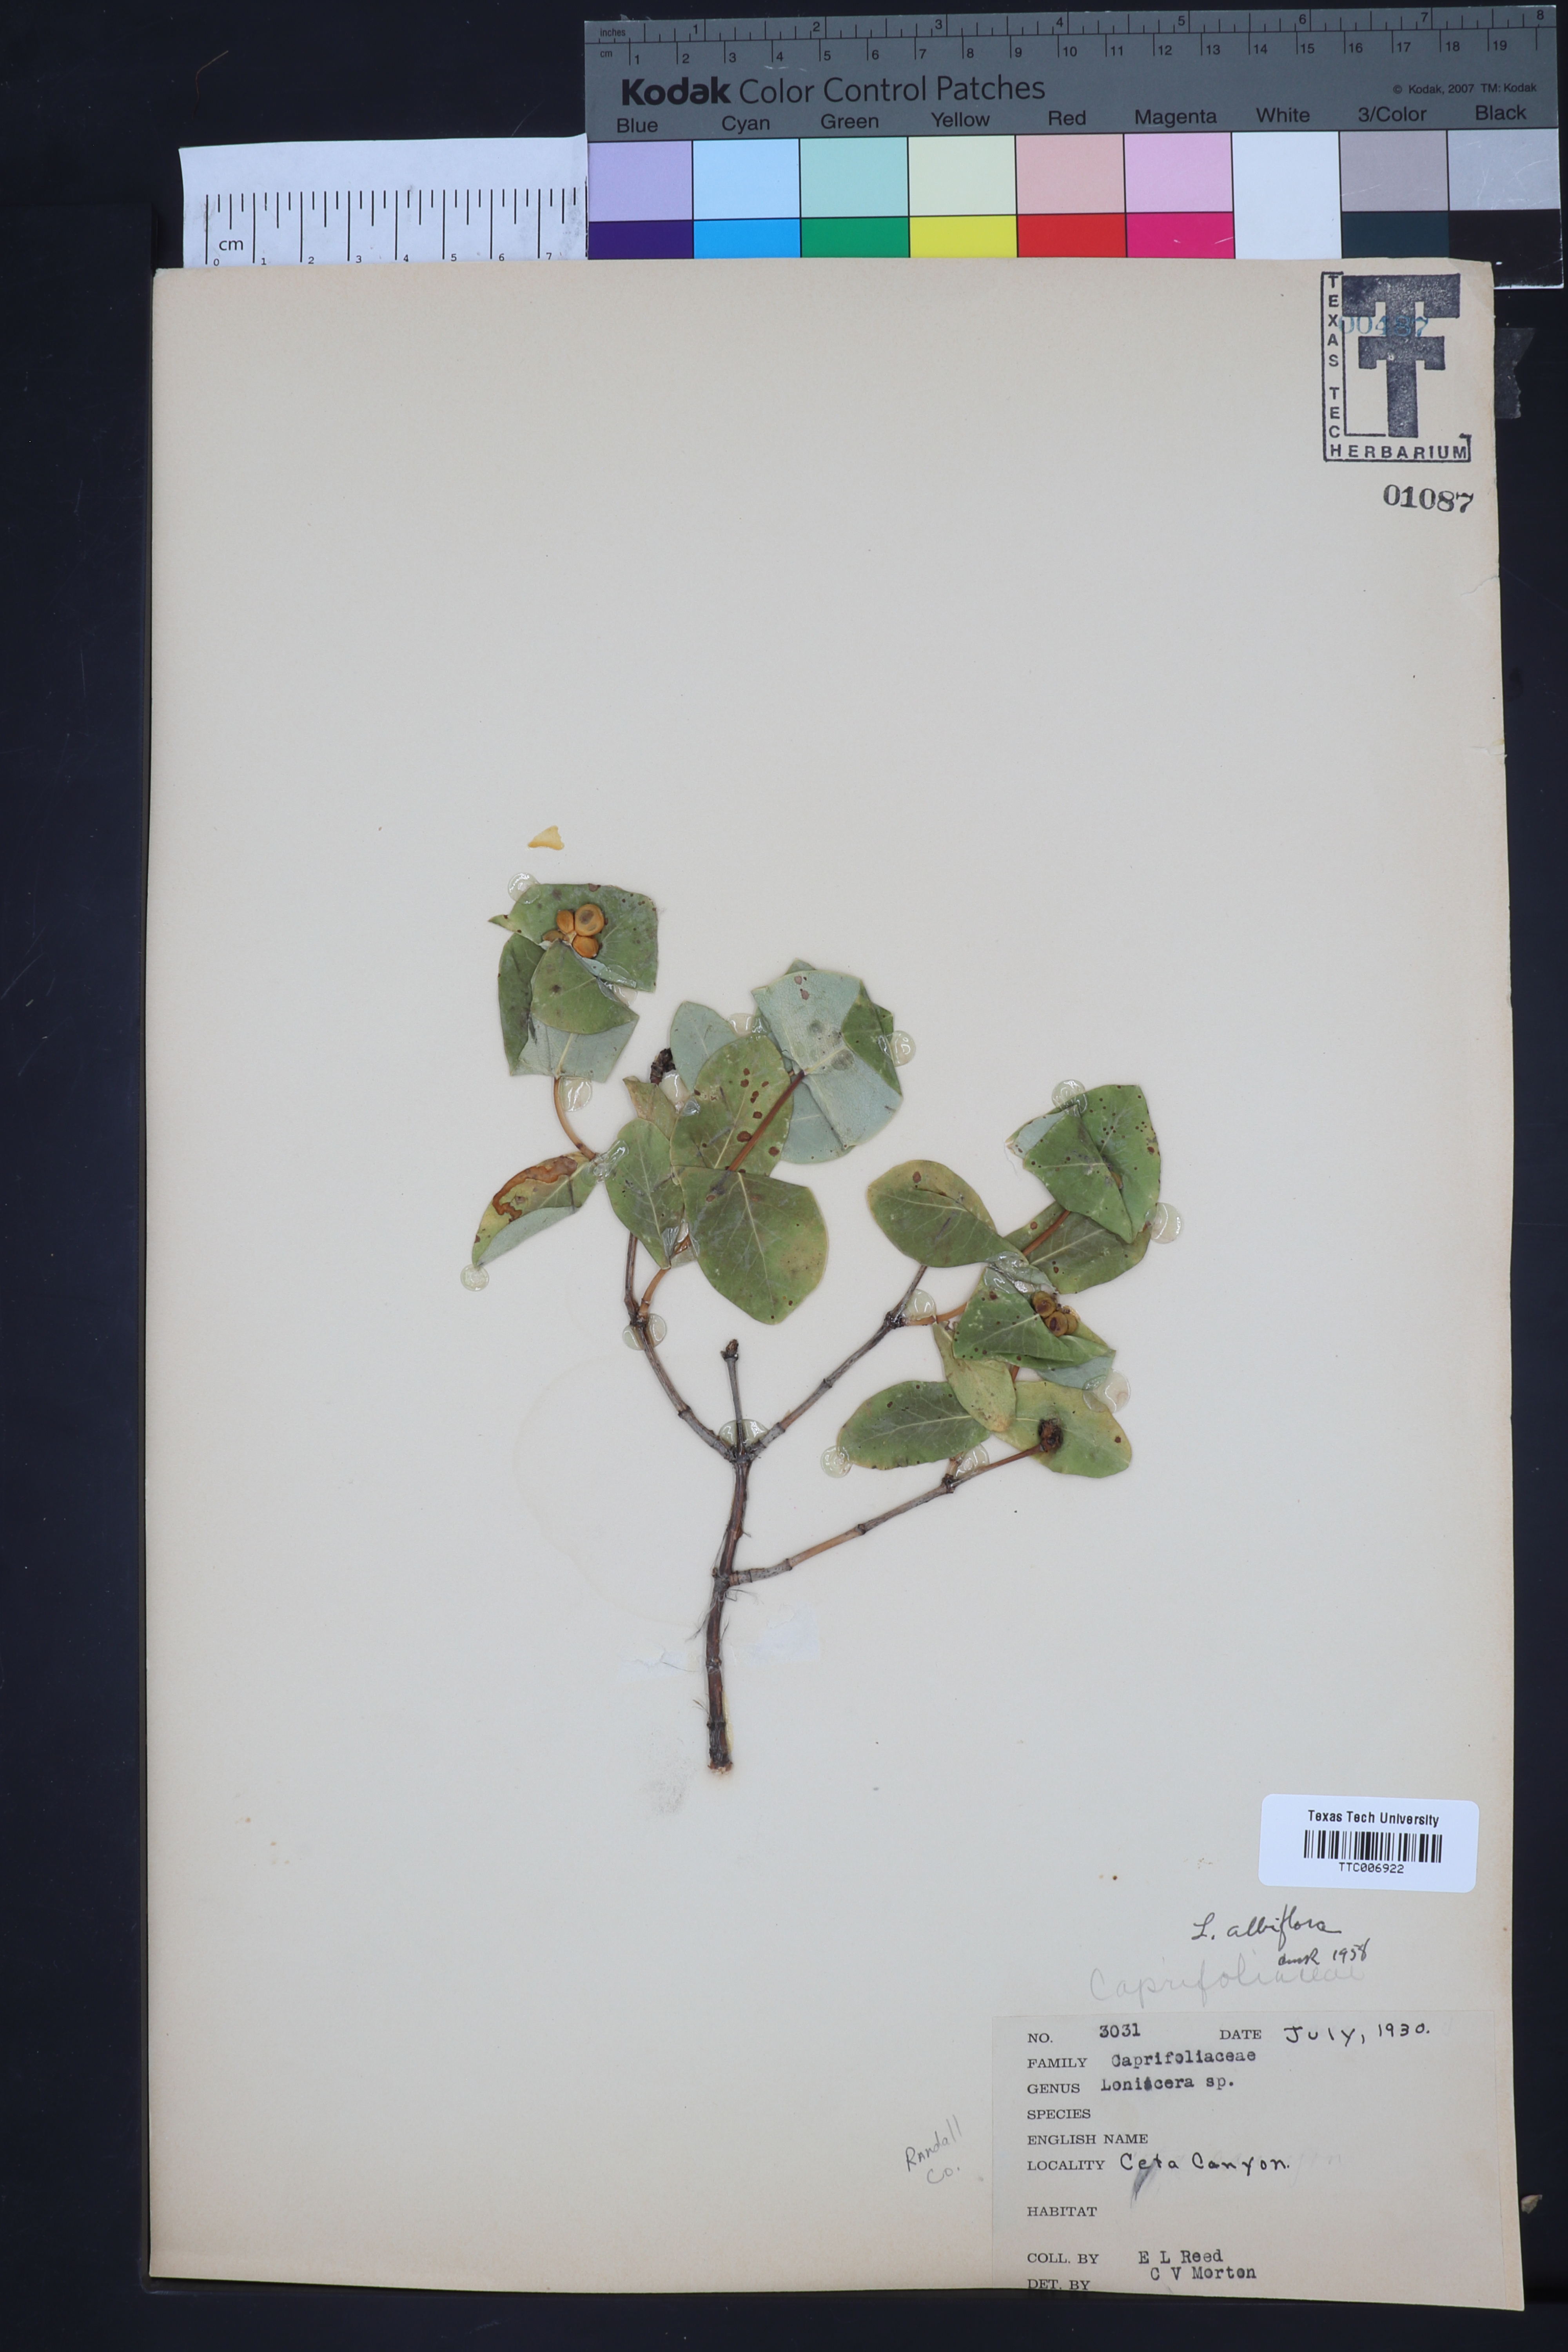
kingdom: Plantae
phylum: Tracheophyta
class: Magnoliopsida
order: Dipsacales
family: Caprifoliaceae
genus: Lonicera
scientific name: Lonicera albiflora
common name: White honeysuckle
